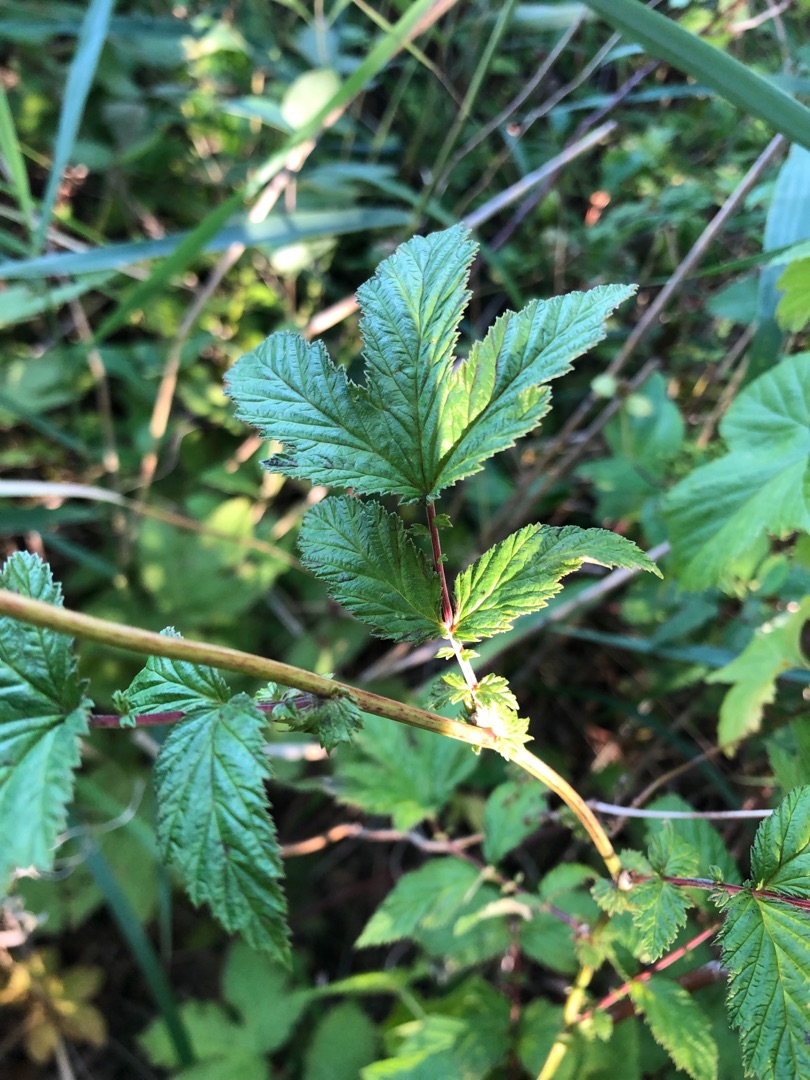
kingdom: Plantae
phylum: Tracheophyta
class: Magnoliopsida
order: Rosales
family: Rosaceae
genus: Filipendula
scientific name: Filipendula ulmaria
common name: Almindelig mjødurt
